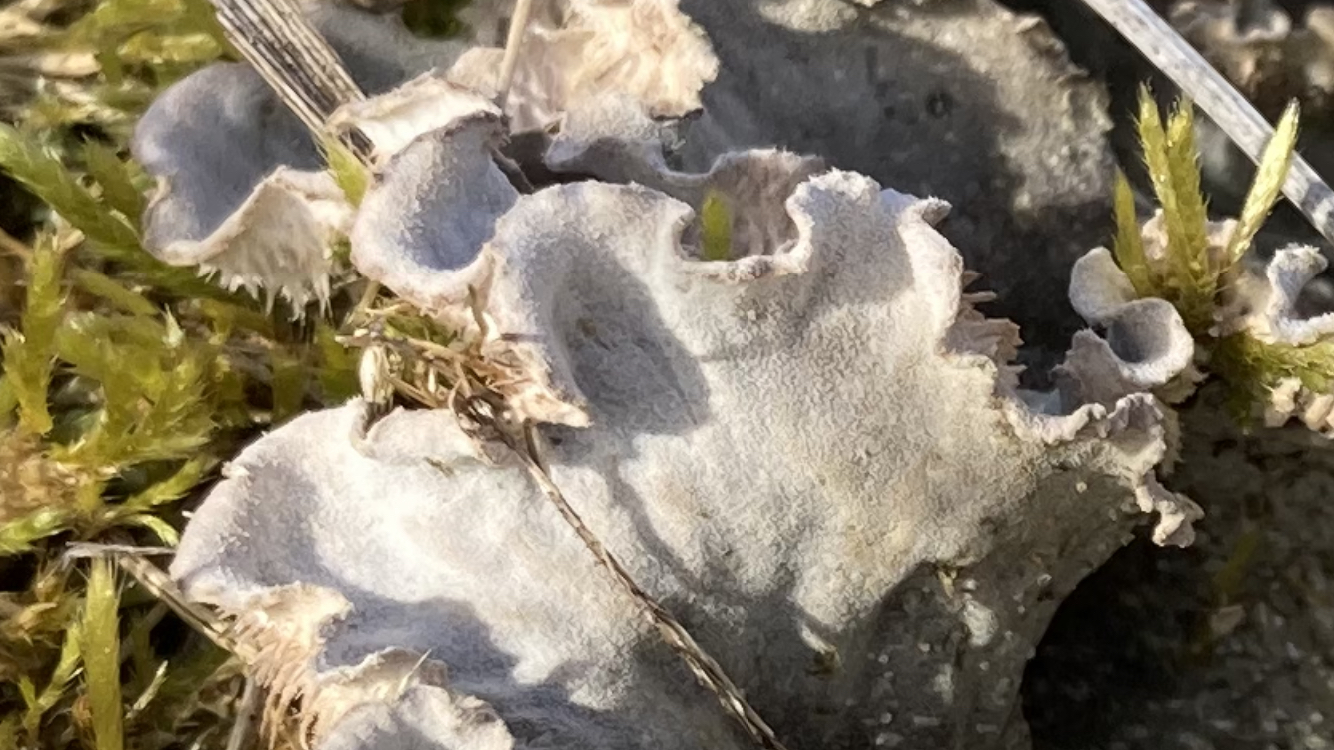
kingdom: Fungi
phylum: Ascomycota
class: Lecanoromycetes
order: Peltigerales
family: Peltigeraceae
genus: Peltigera
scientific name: Peltigera membranacea
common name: tynd skjoldlav
